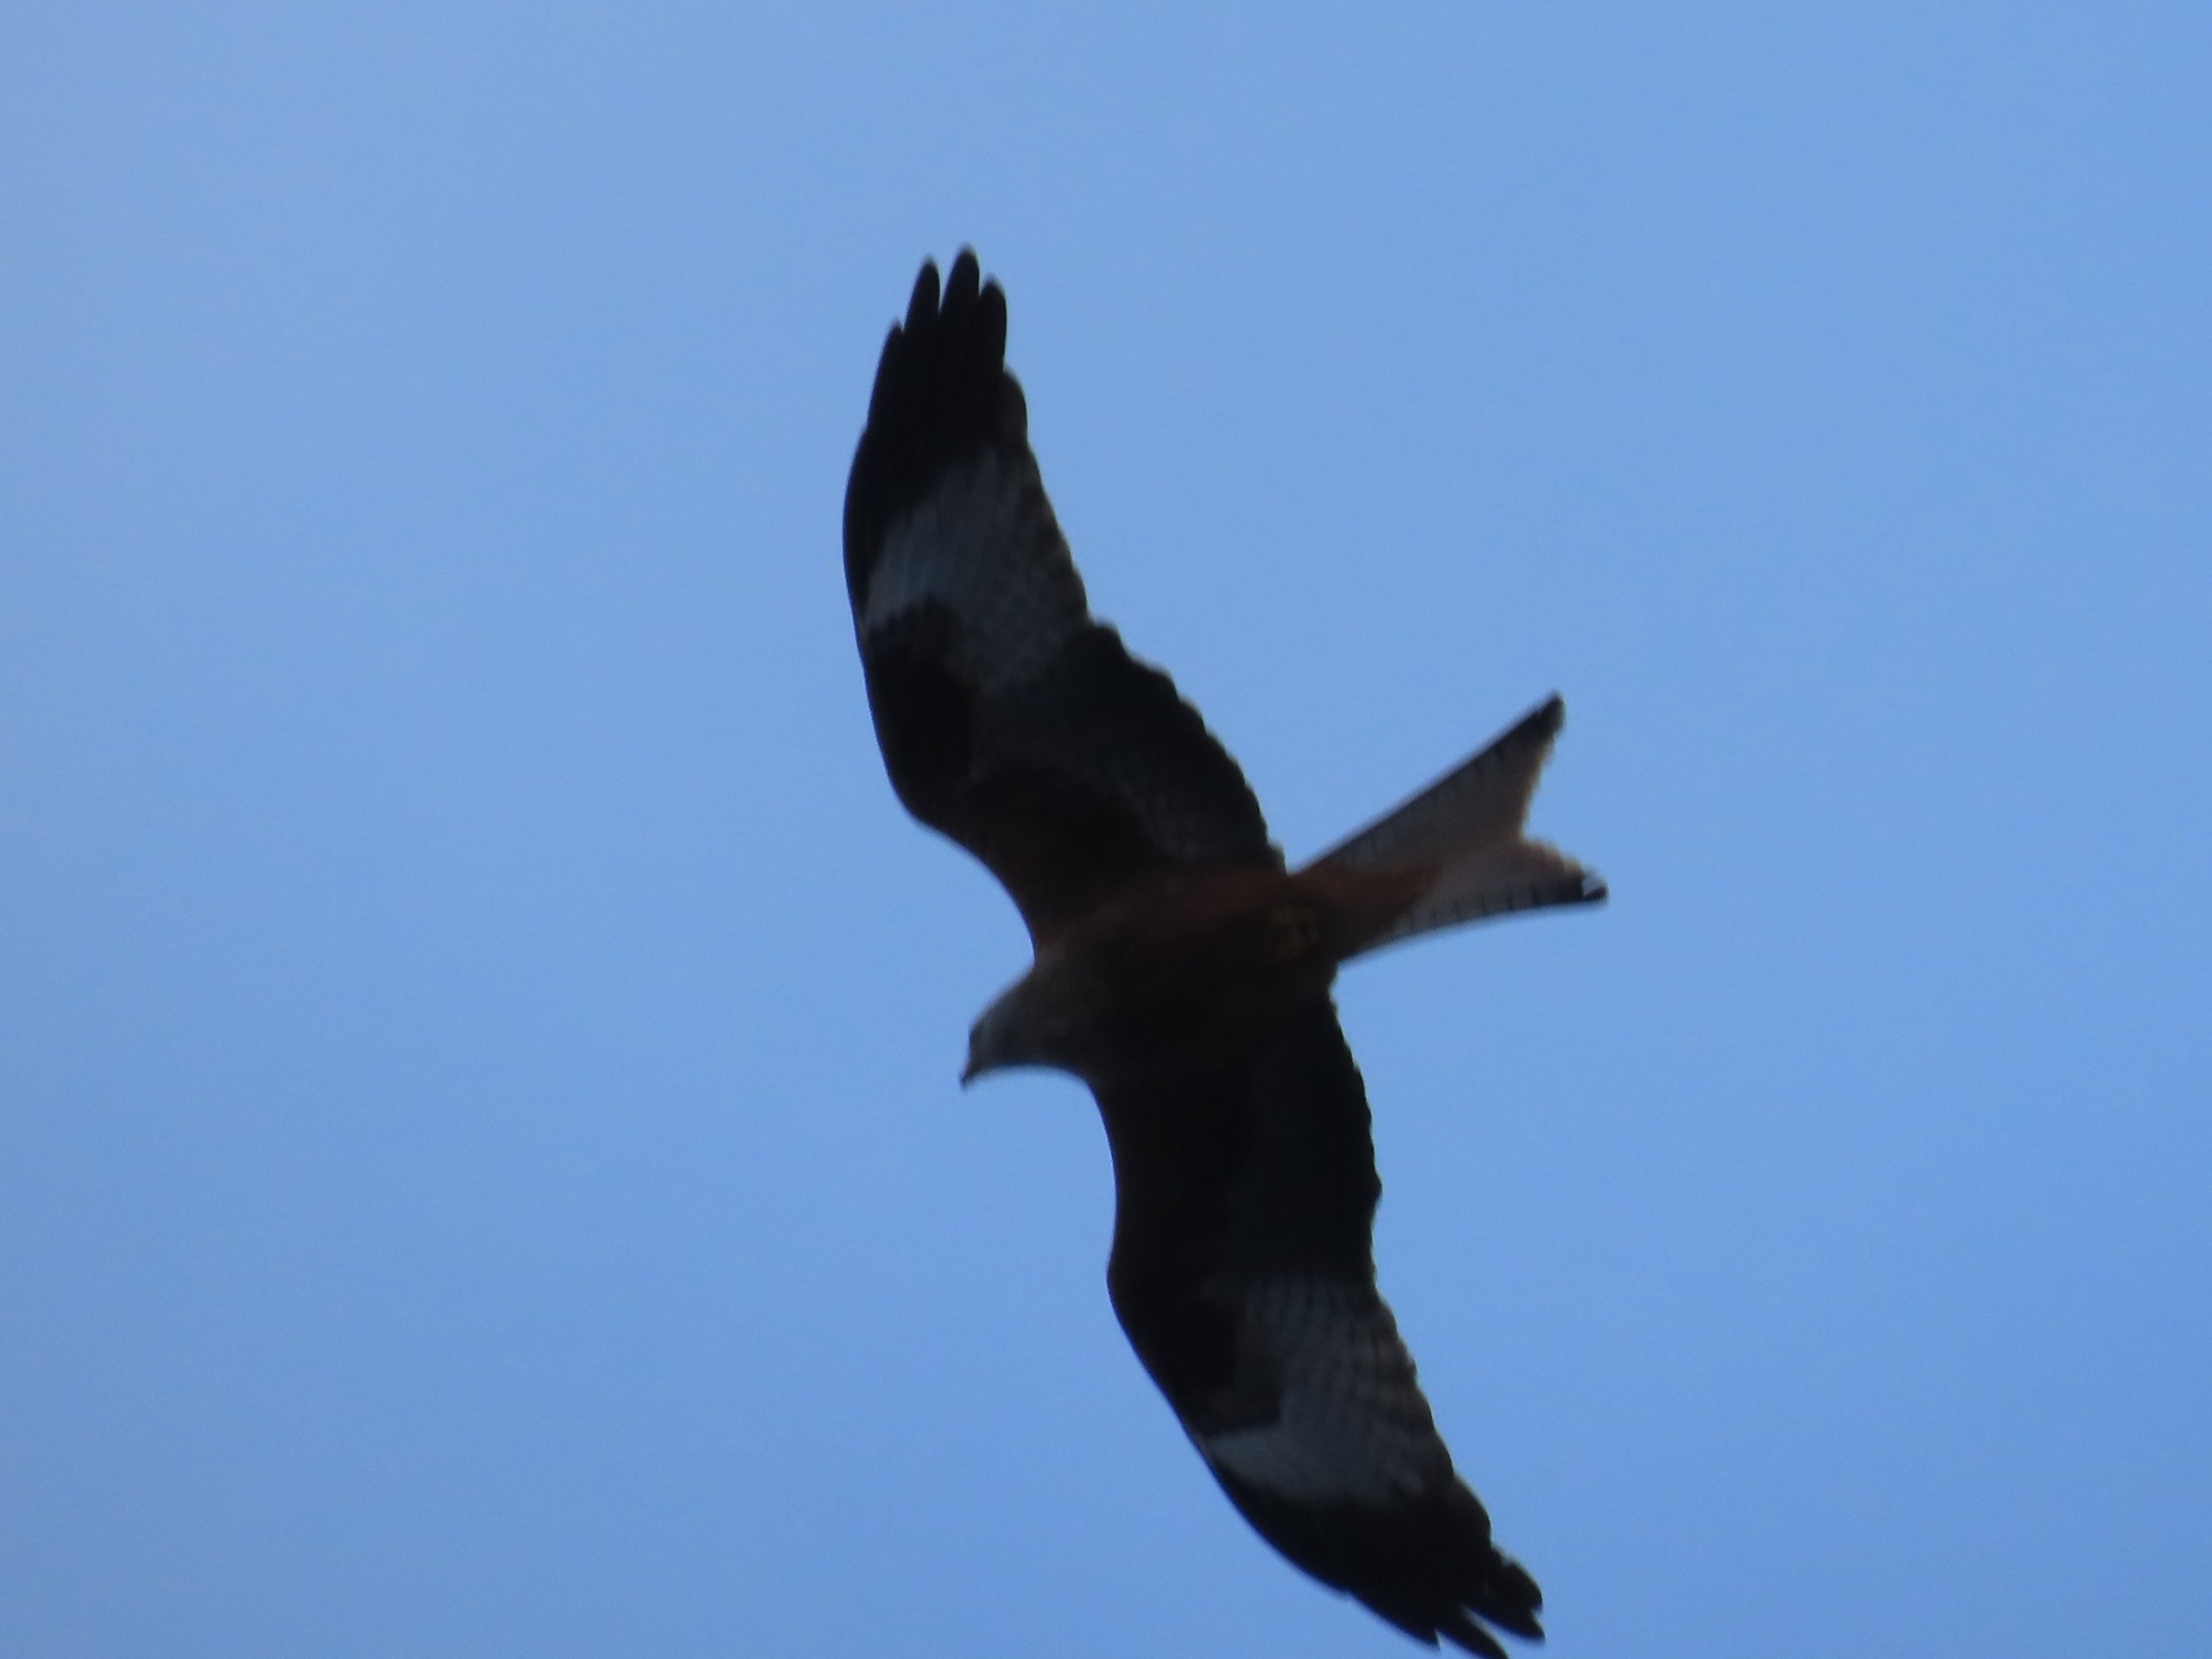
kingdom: Animalia
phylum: Chordata
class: Aves
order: Accipitriformes
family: Accipitridae
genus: Milvus
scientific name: Milvus milvus
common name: Rød glente
